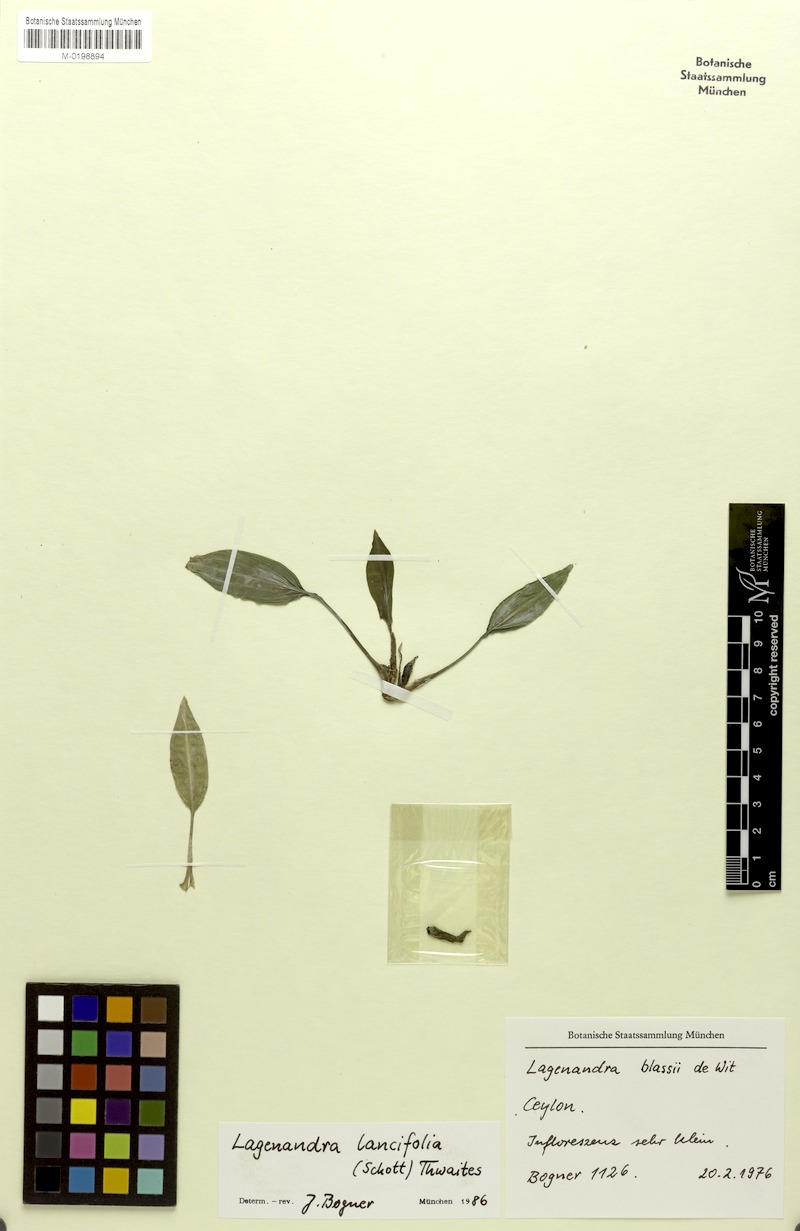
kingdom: Plantae
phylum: Tracheophyta
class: Liliopsida
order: Alismatales
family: Araceae
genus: Lagenandra
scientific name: Lagenandra lancifolia
